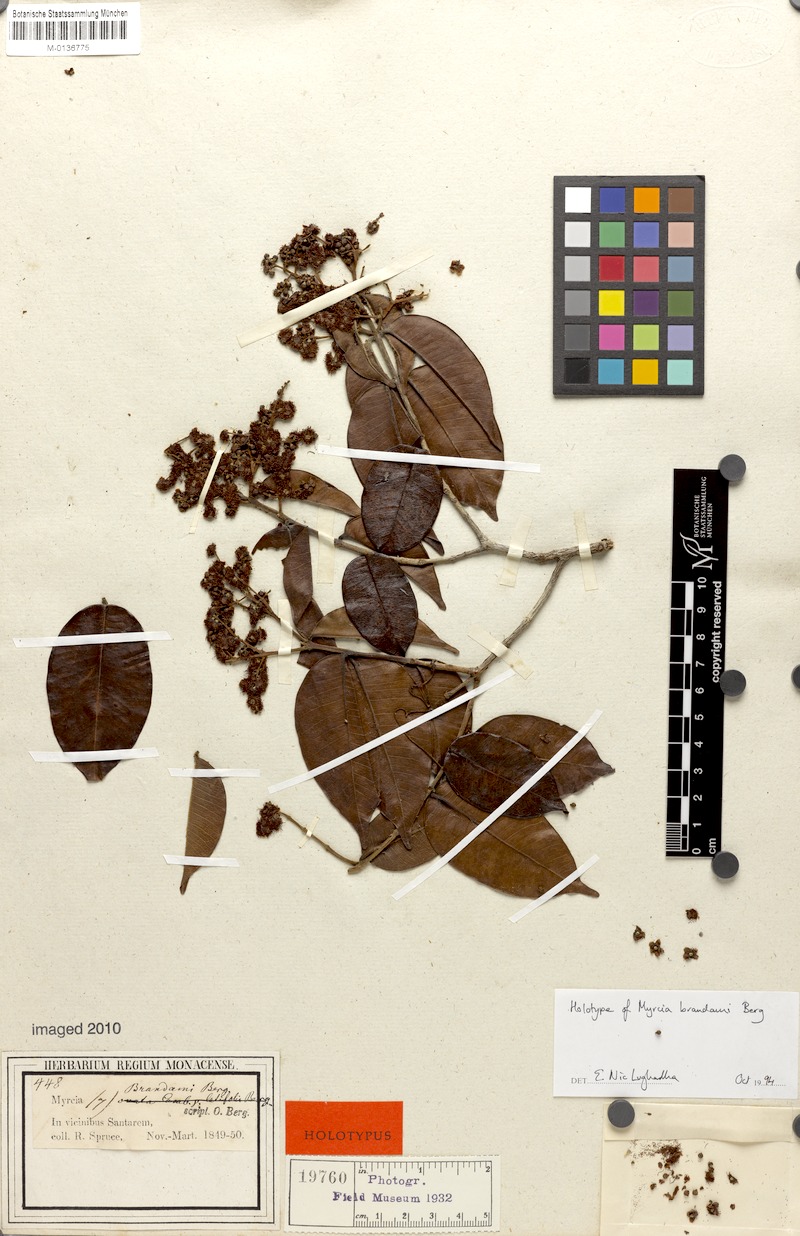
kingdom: Plantae
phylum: Tracheophyta
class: Magnoliopsida
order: Myrtales
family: Myrtaceae
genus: Myrcia
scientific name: Myrcia splendens
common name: Surinam cherry
